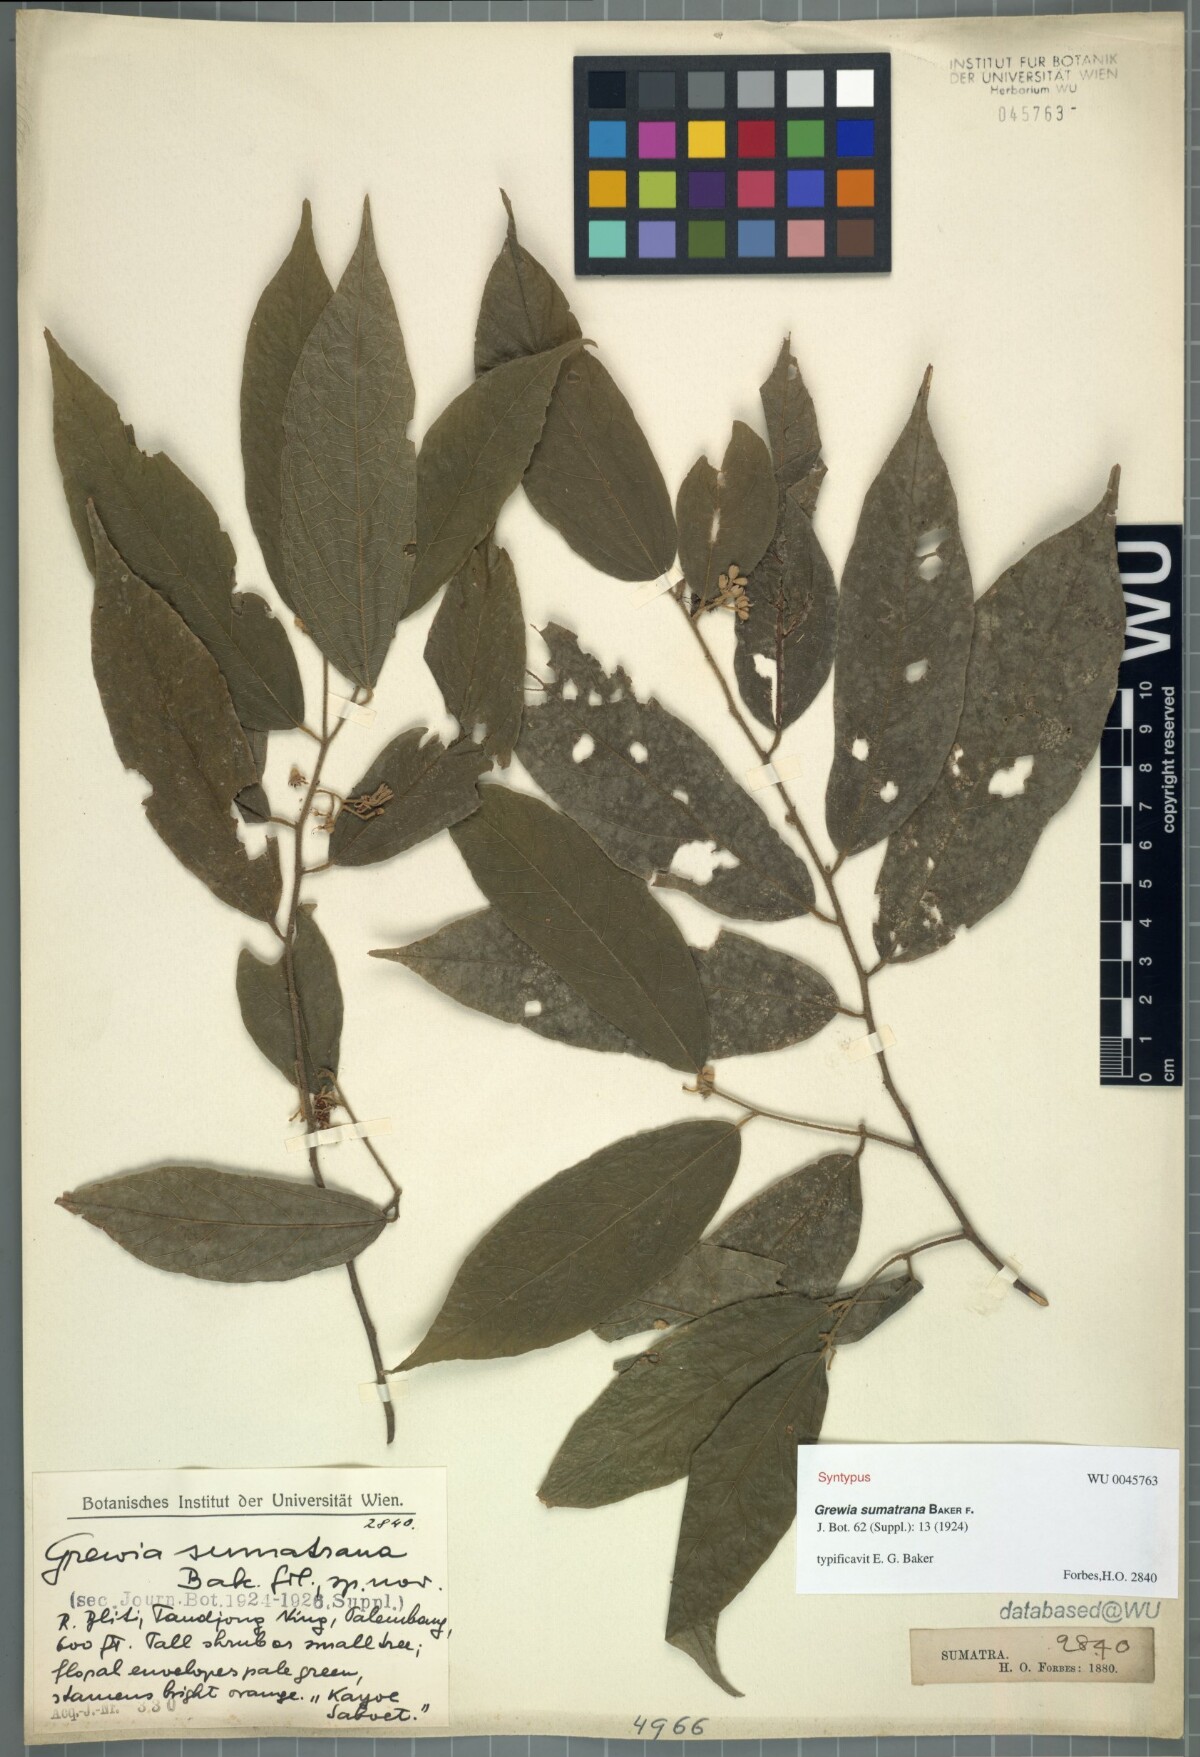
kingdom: Plantae
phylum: Tracheophyta
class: Magnoliopsida
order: Malvales
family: Malvaceae
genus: Microcos
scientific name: Microcos sumatrana
